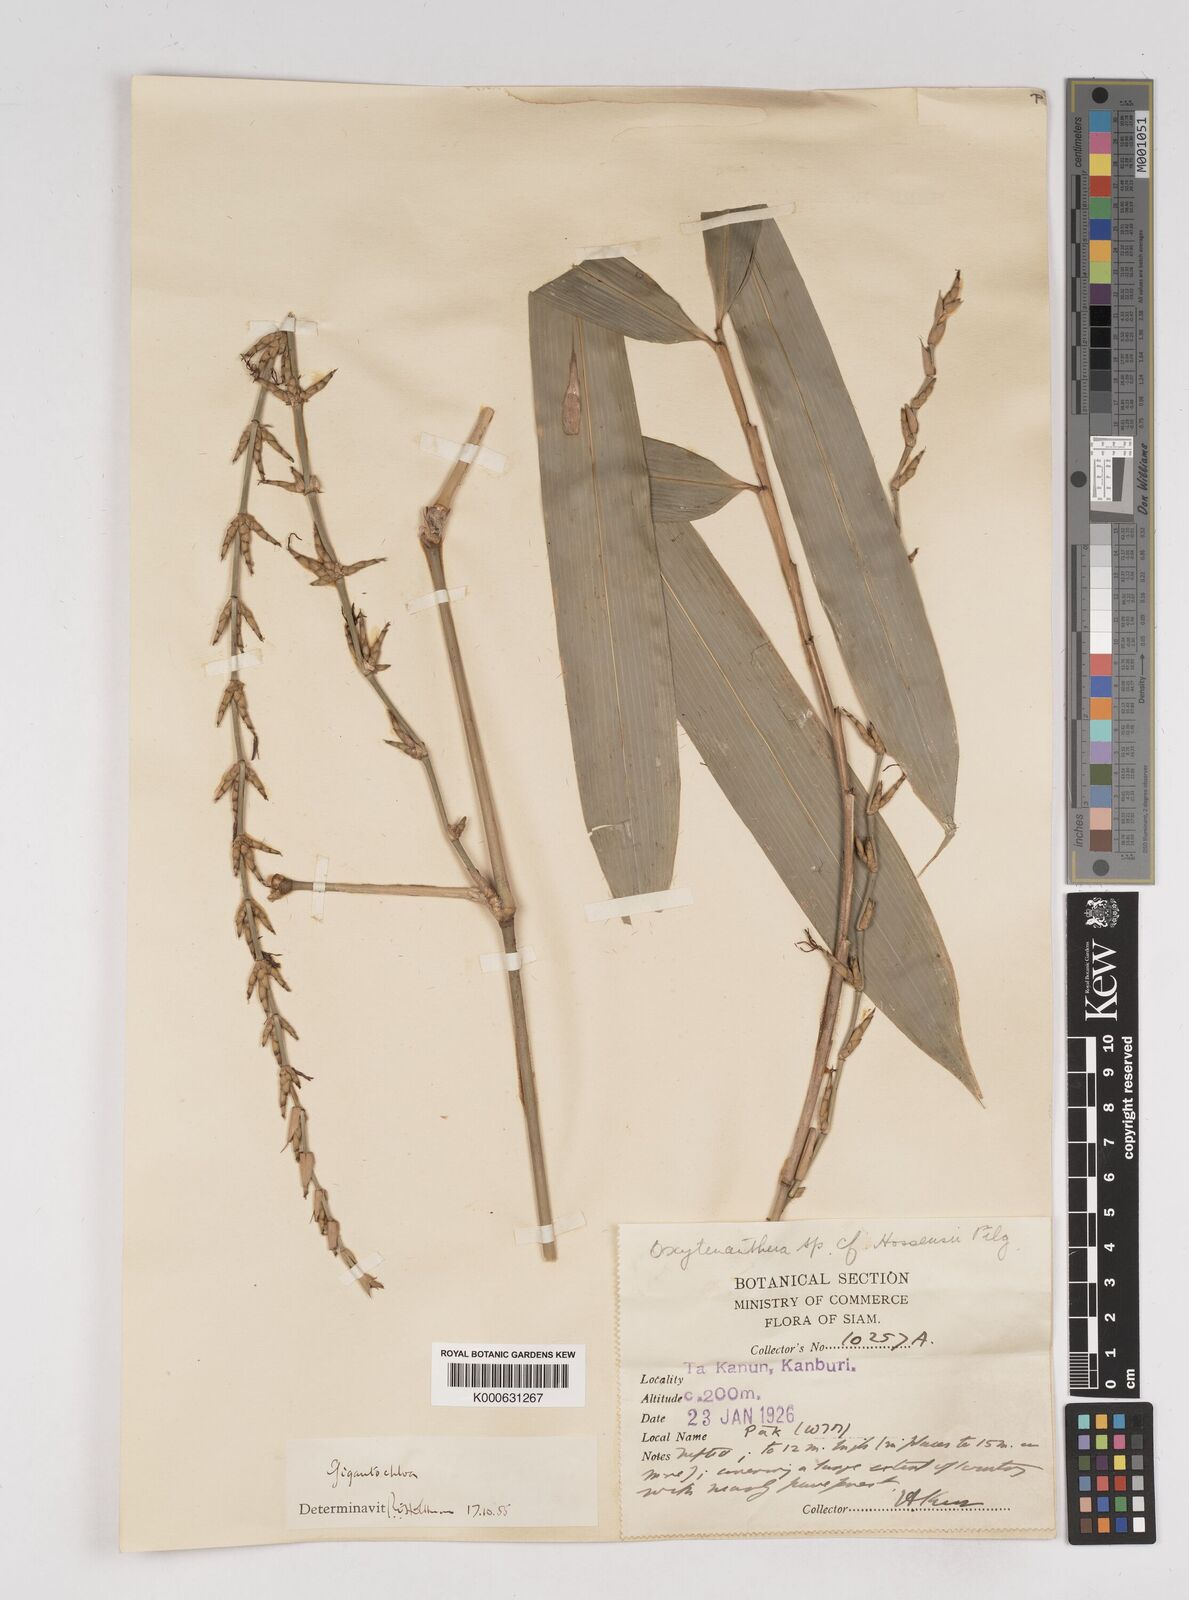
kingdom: Plantae
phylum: Tracheophyta
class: Liliopsida
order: Poales
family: Poaceae
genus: Gigantochloa
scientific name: Gigantochloa
